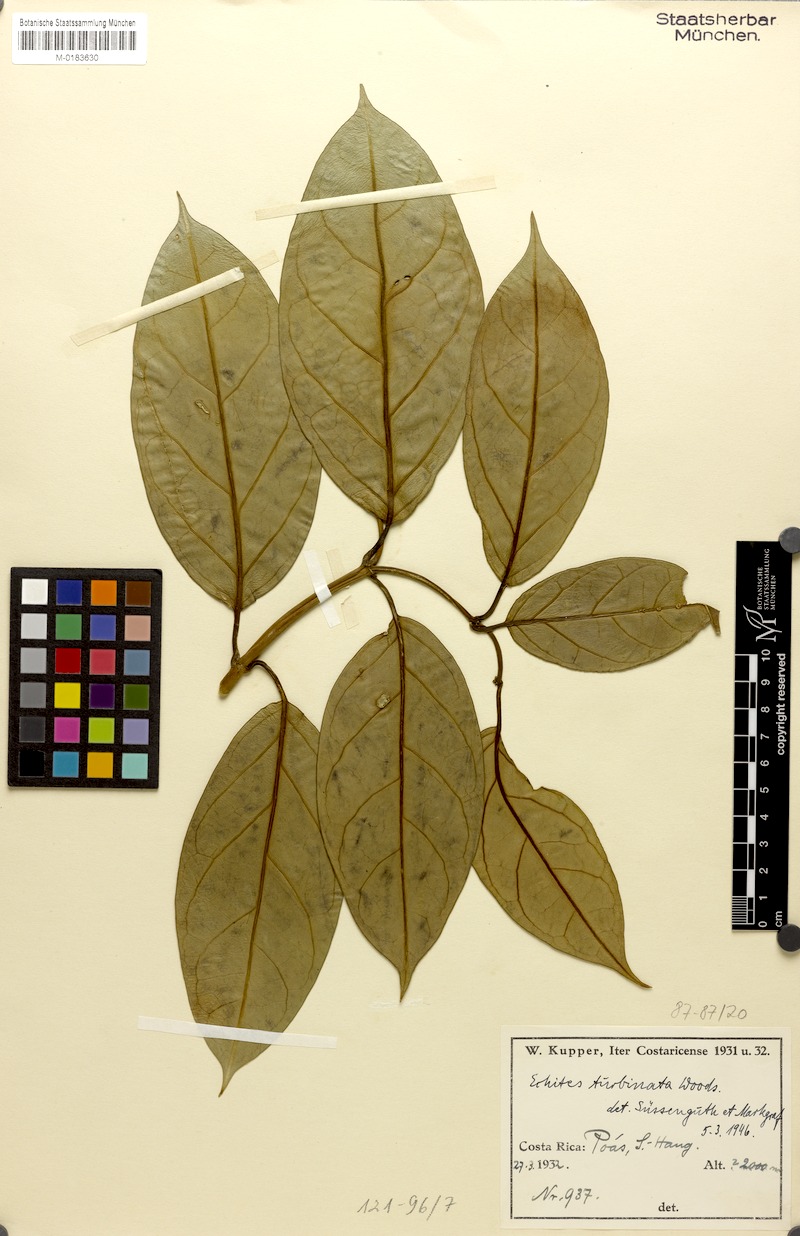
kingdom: Plantae
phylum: Tracheophyta
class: Magnoliopsida
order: Gentianales
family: Apocynaceae
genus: Echites
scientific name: Echites turbinatus
